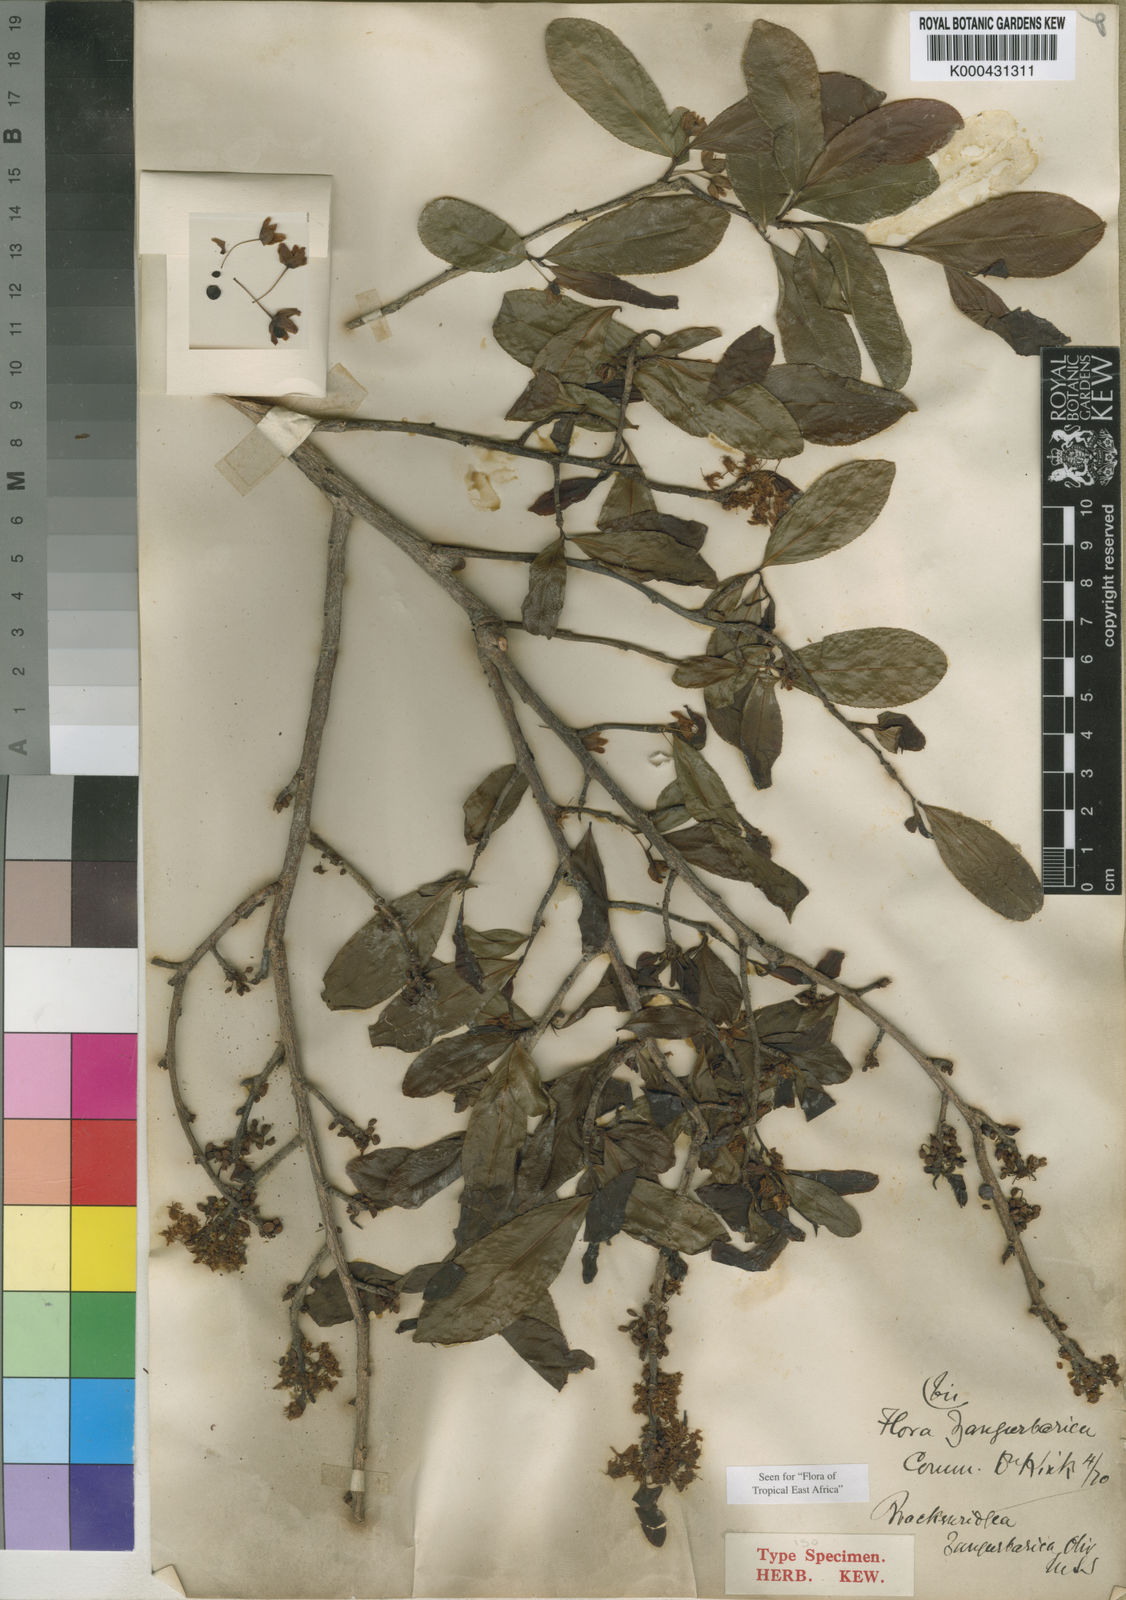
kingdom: Plantae
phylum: Tracheophyta
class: Magnoliopsida
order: Malpighiales
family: Ochnaceae
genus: Brackenridgea
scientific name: Brackenridgea zanguebarica
